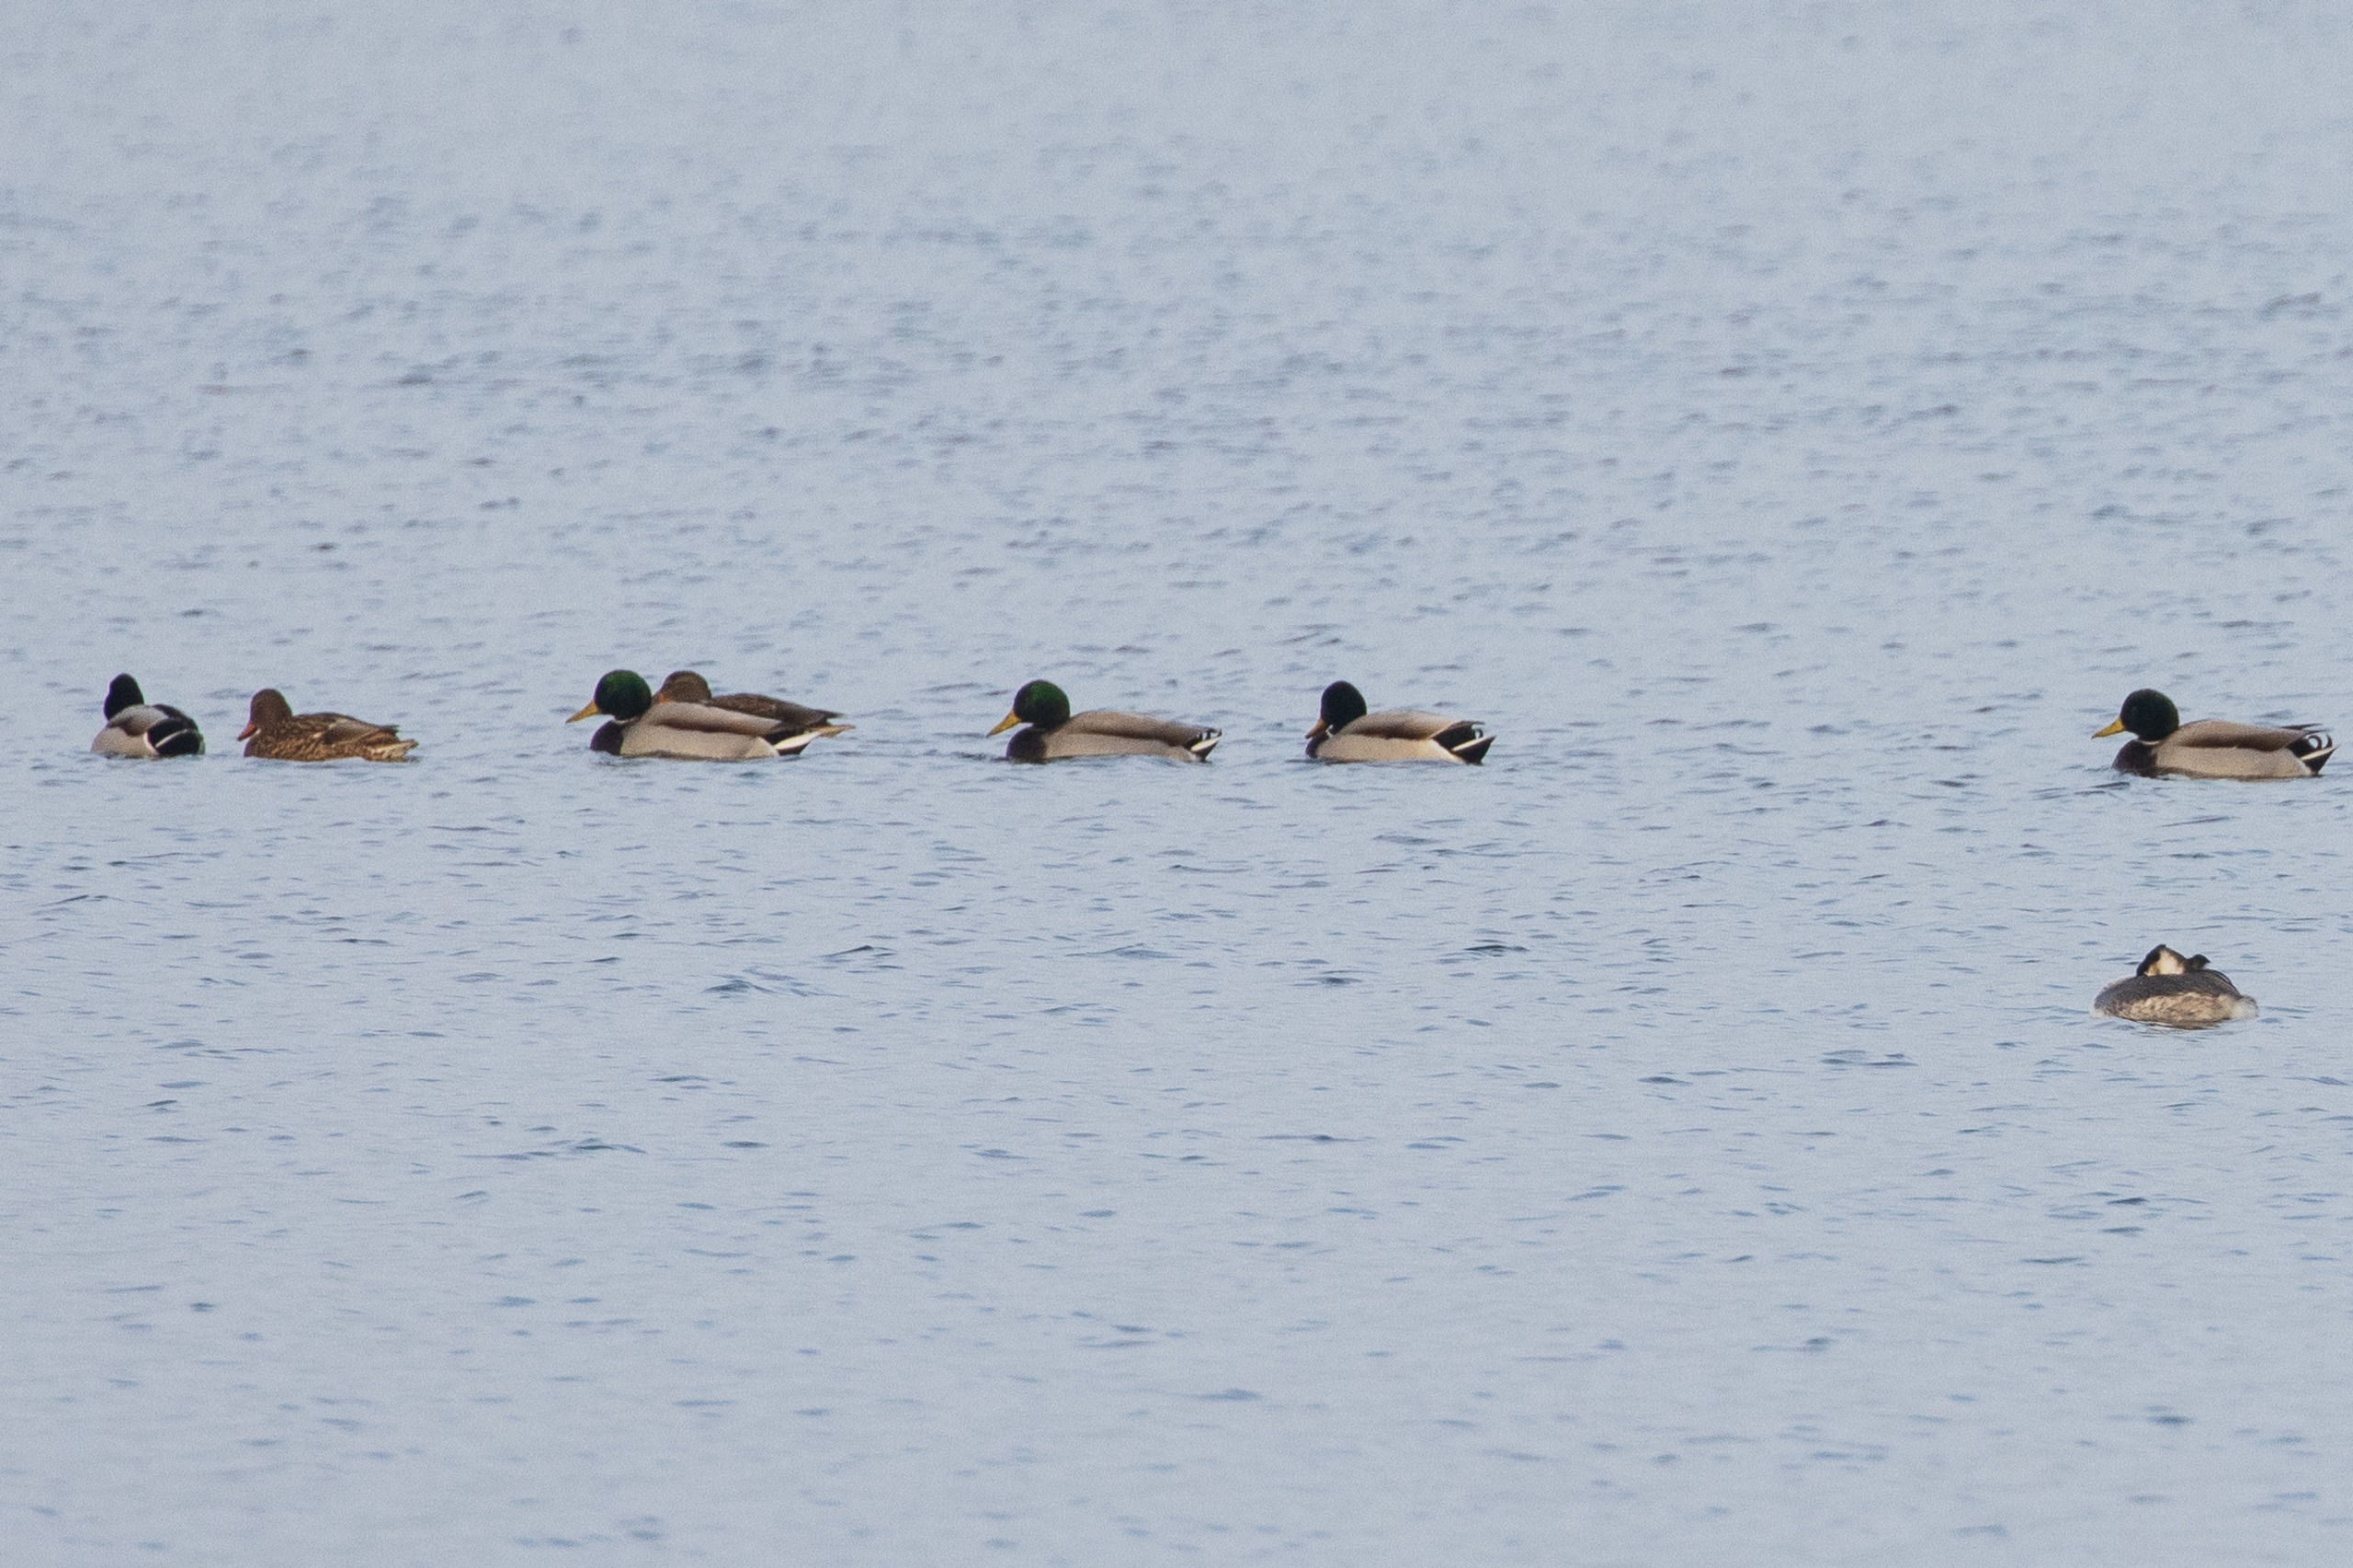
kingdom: Animalia
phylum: Chordata
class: Aves
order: Anseriformes
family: Anatidae
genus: Anas
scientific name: Anas platyrhynchos
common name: Gråand
